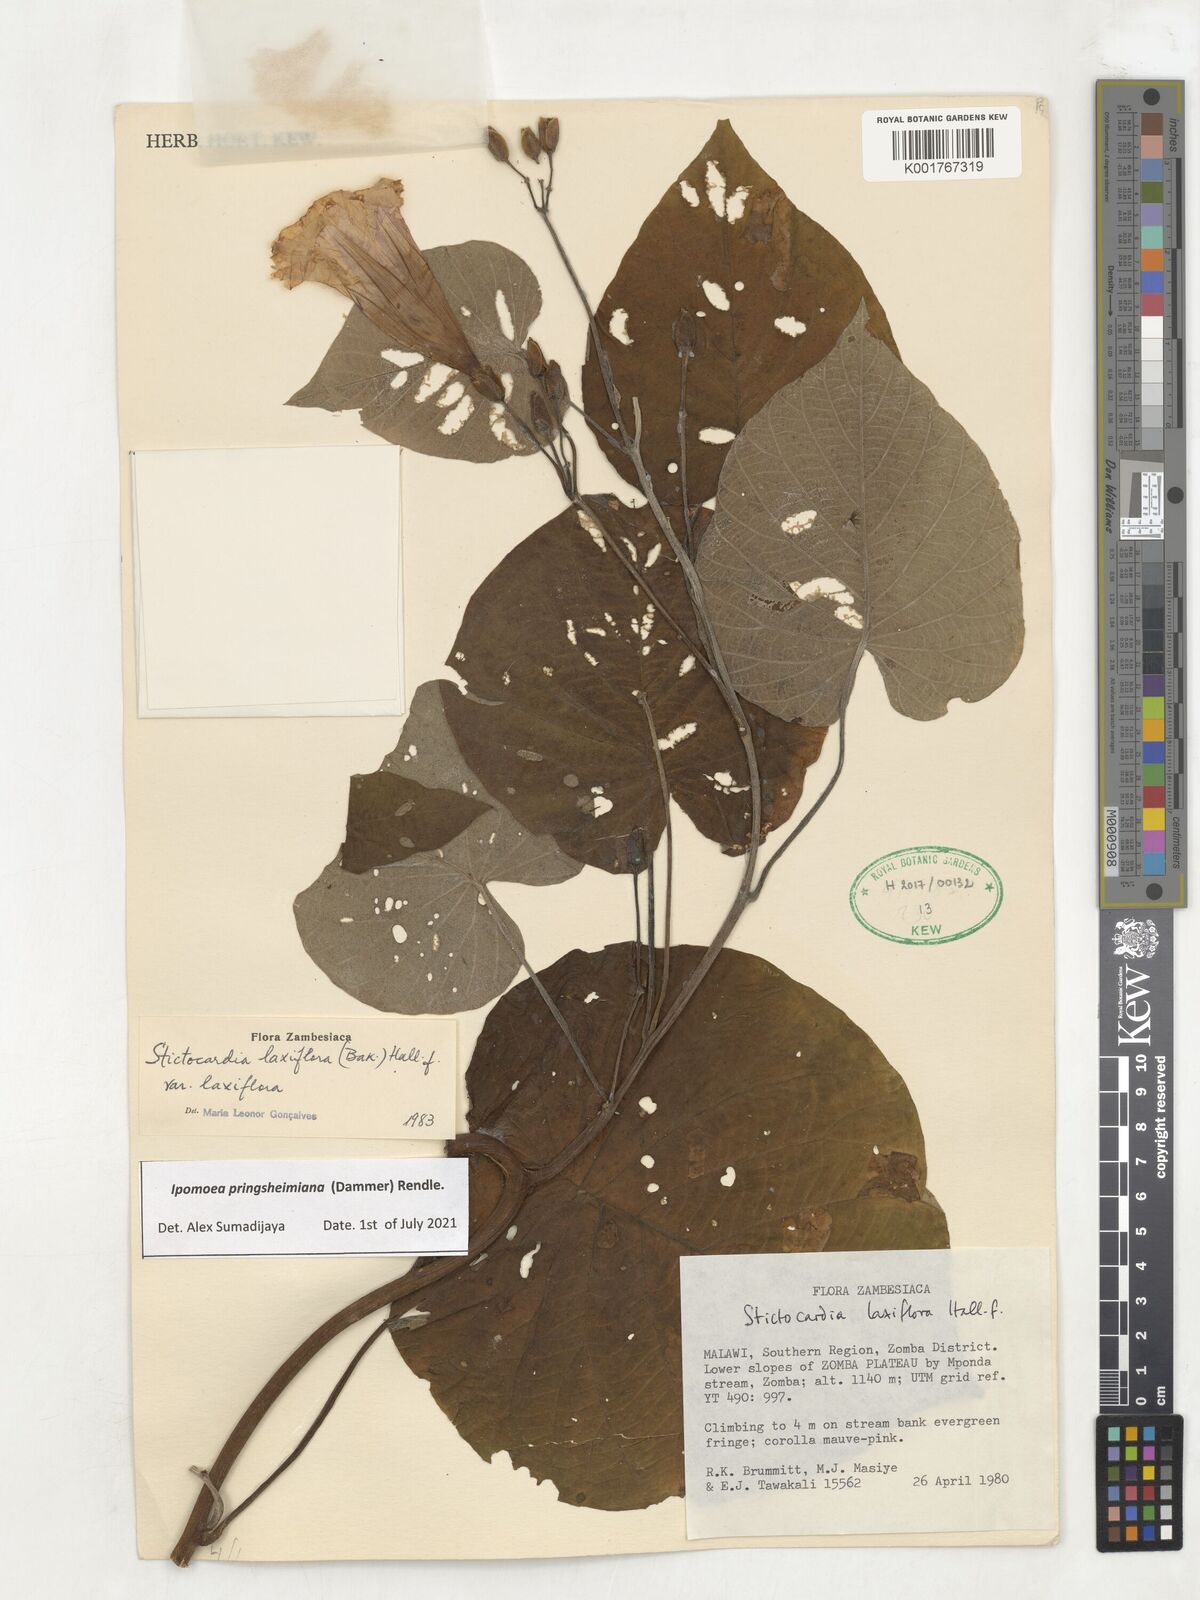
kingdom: Plantae
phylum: Tracheophyta
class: Magnoliopsida
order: Solanales
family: Convolvulaceae
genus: Stictocardia
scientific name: Stictocardia laxiflora
